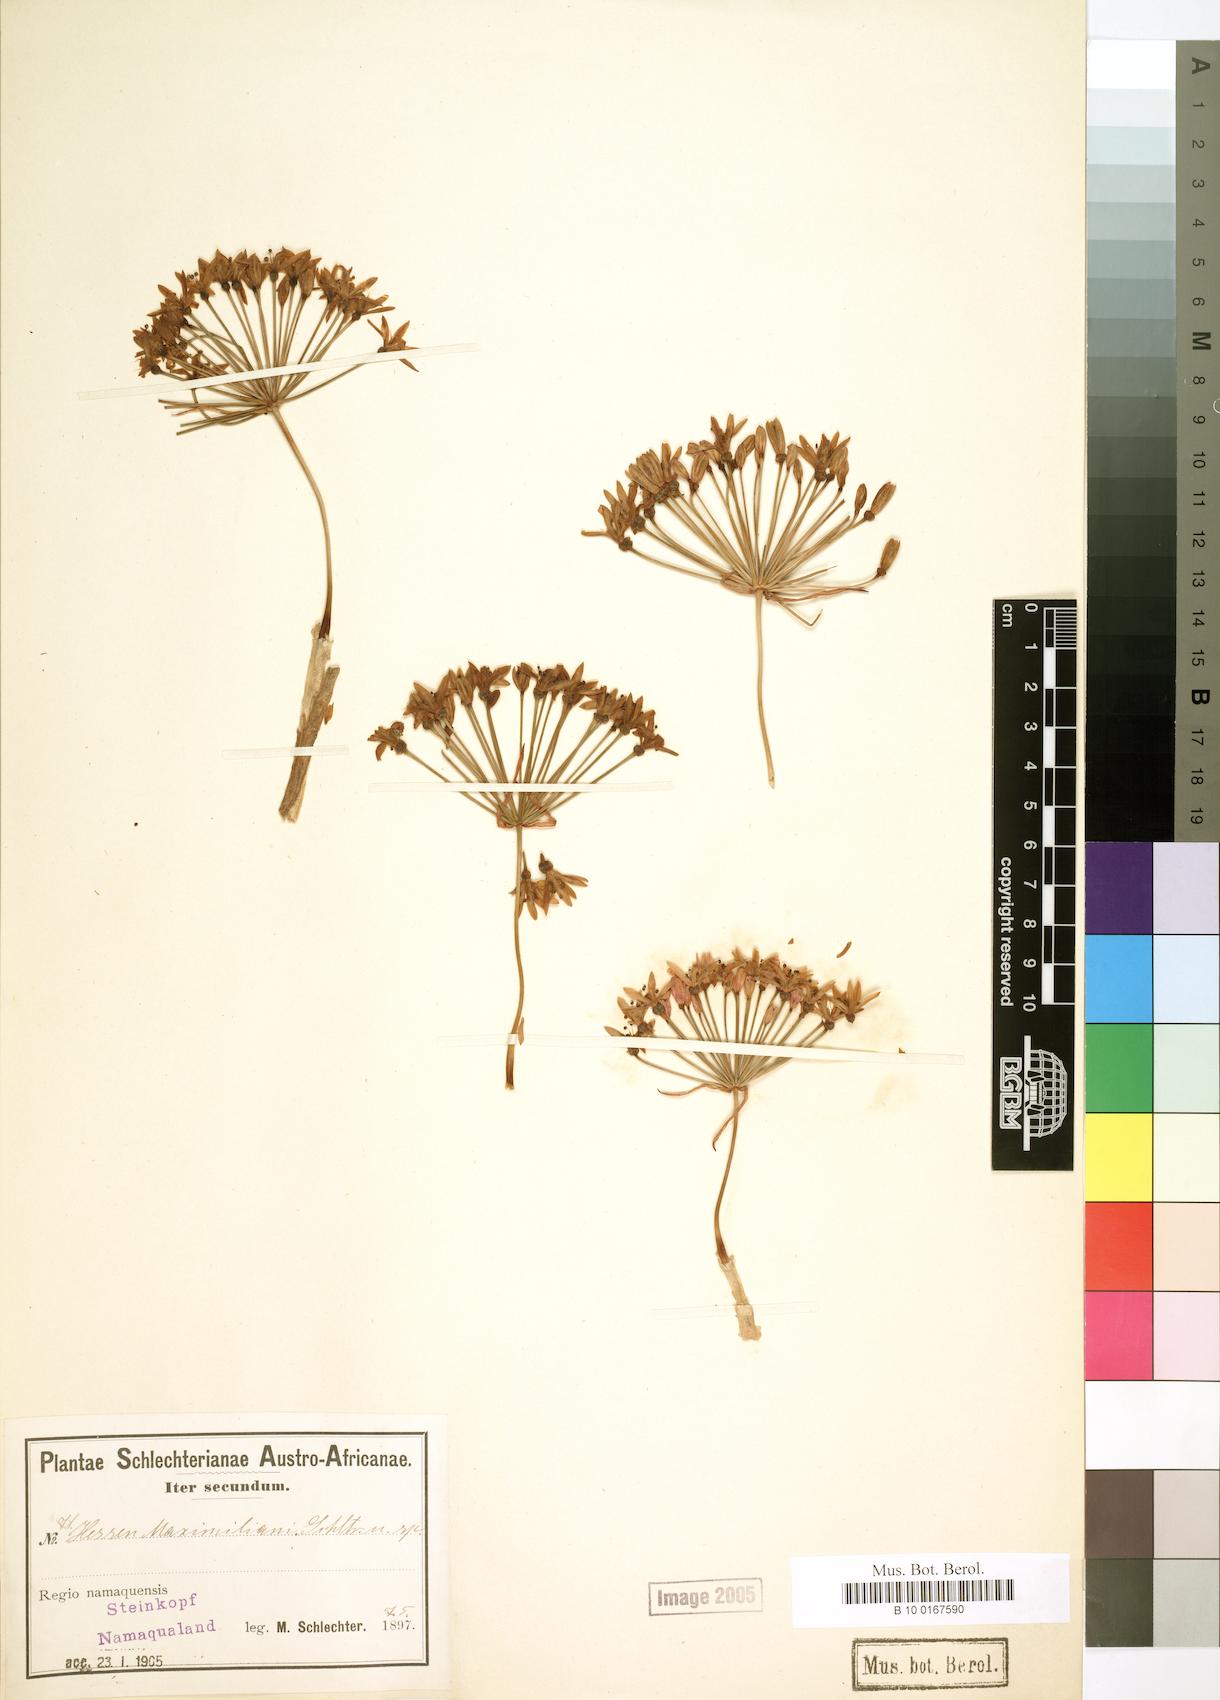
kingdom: Plantae
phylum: Tracheophyta
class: Liliopsida
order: Asparagales
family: Amaryllidaceae
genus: Hessea
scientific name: Hessea
